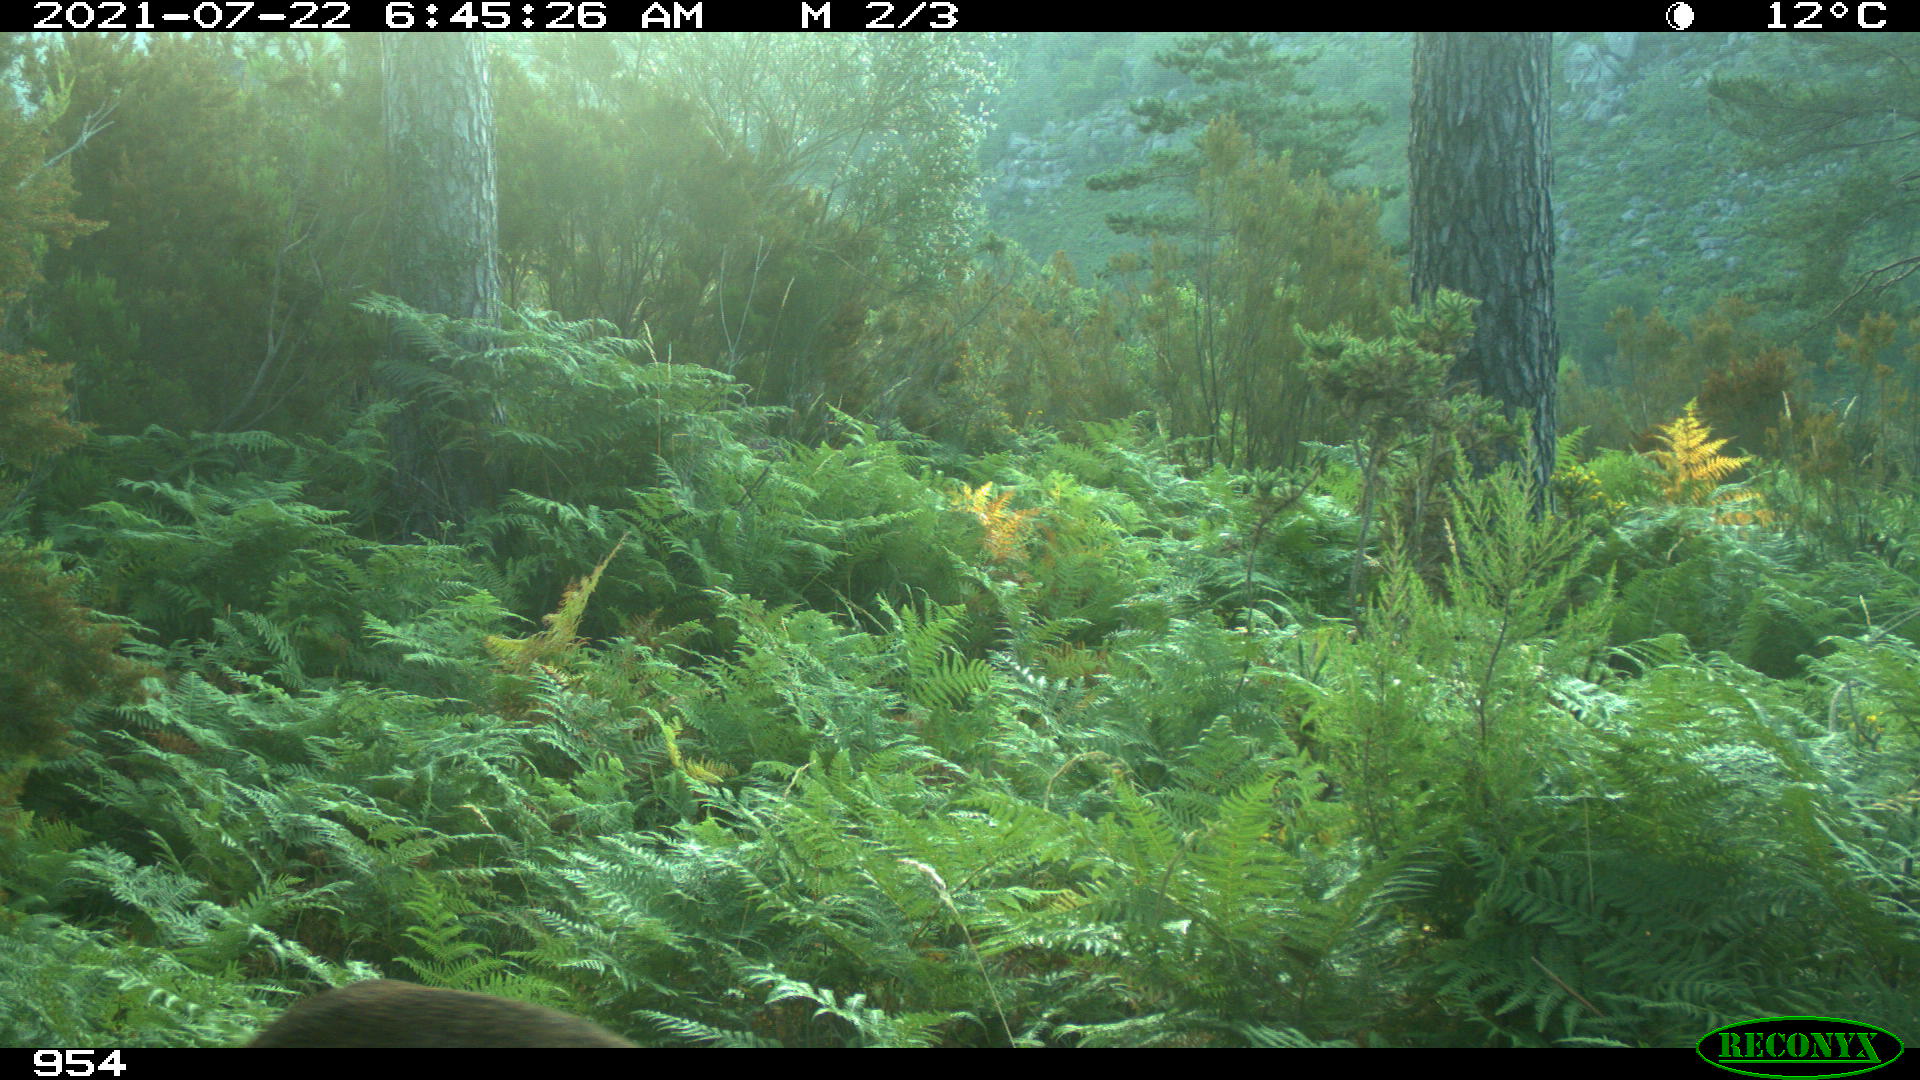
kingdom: Animalia
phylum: Chordata
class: Mammalia
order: Artiodactyla
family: Cervidae
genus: Capreolus
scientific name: Capreolus capreolus
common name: Western roe deer
